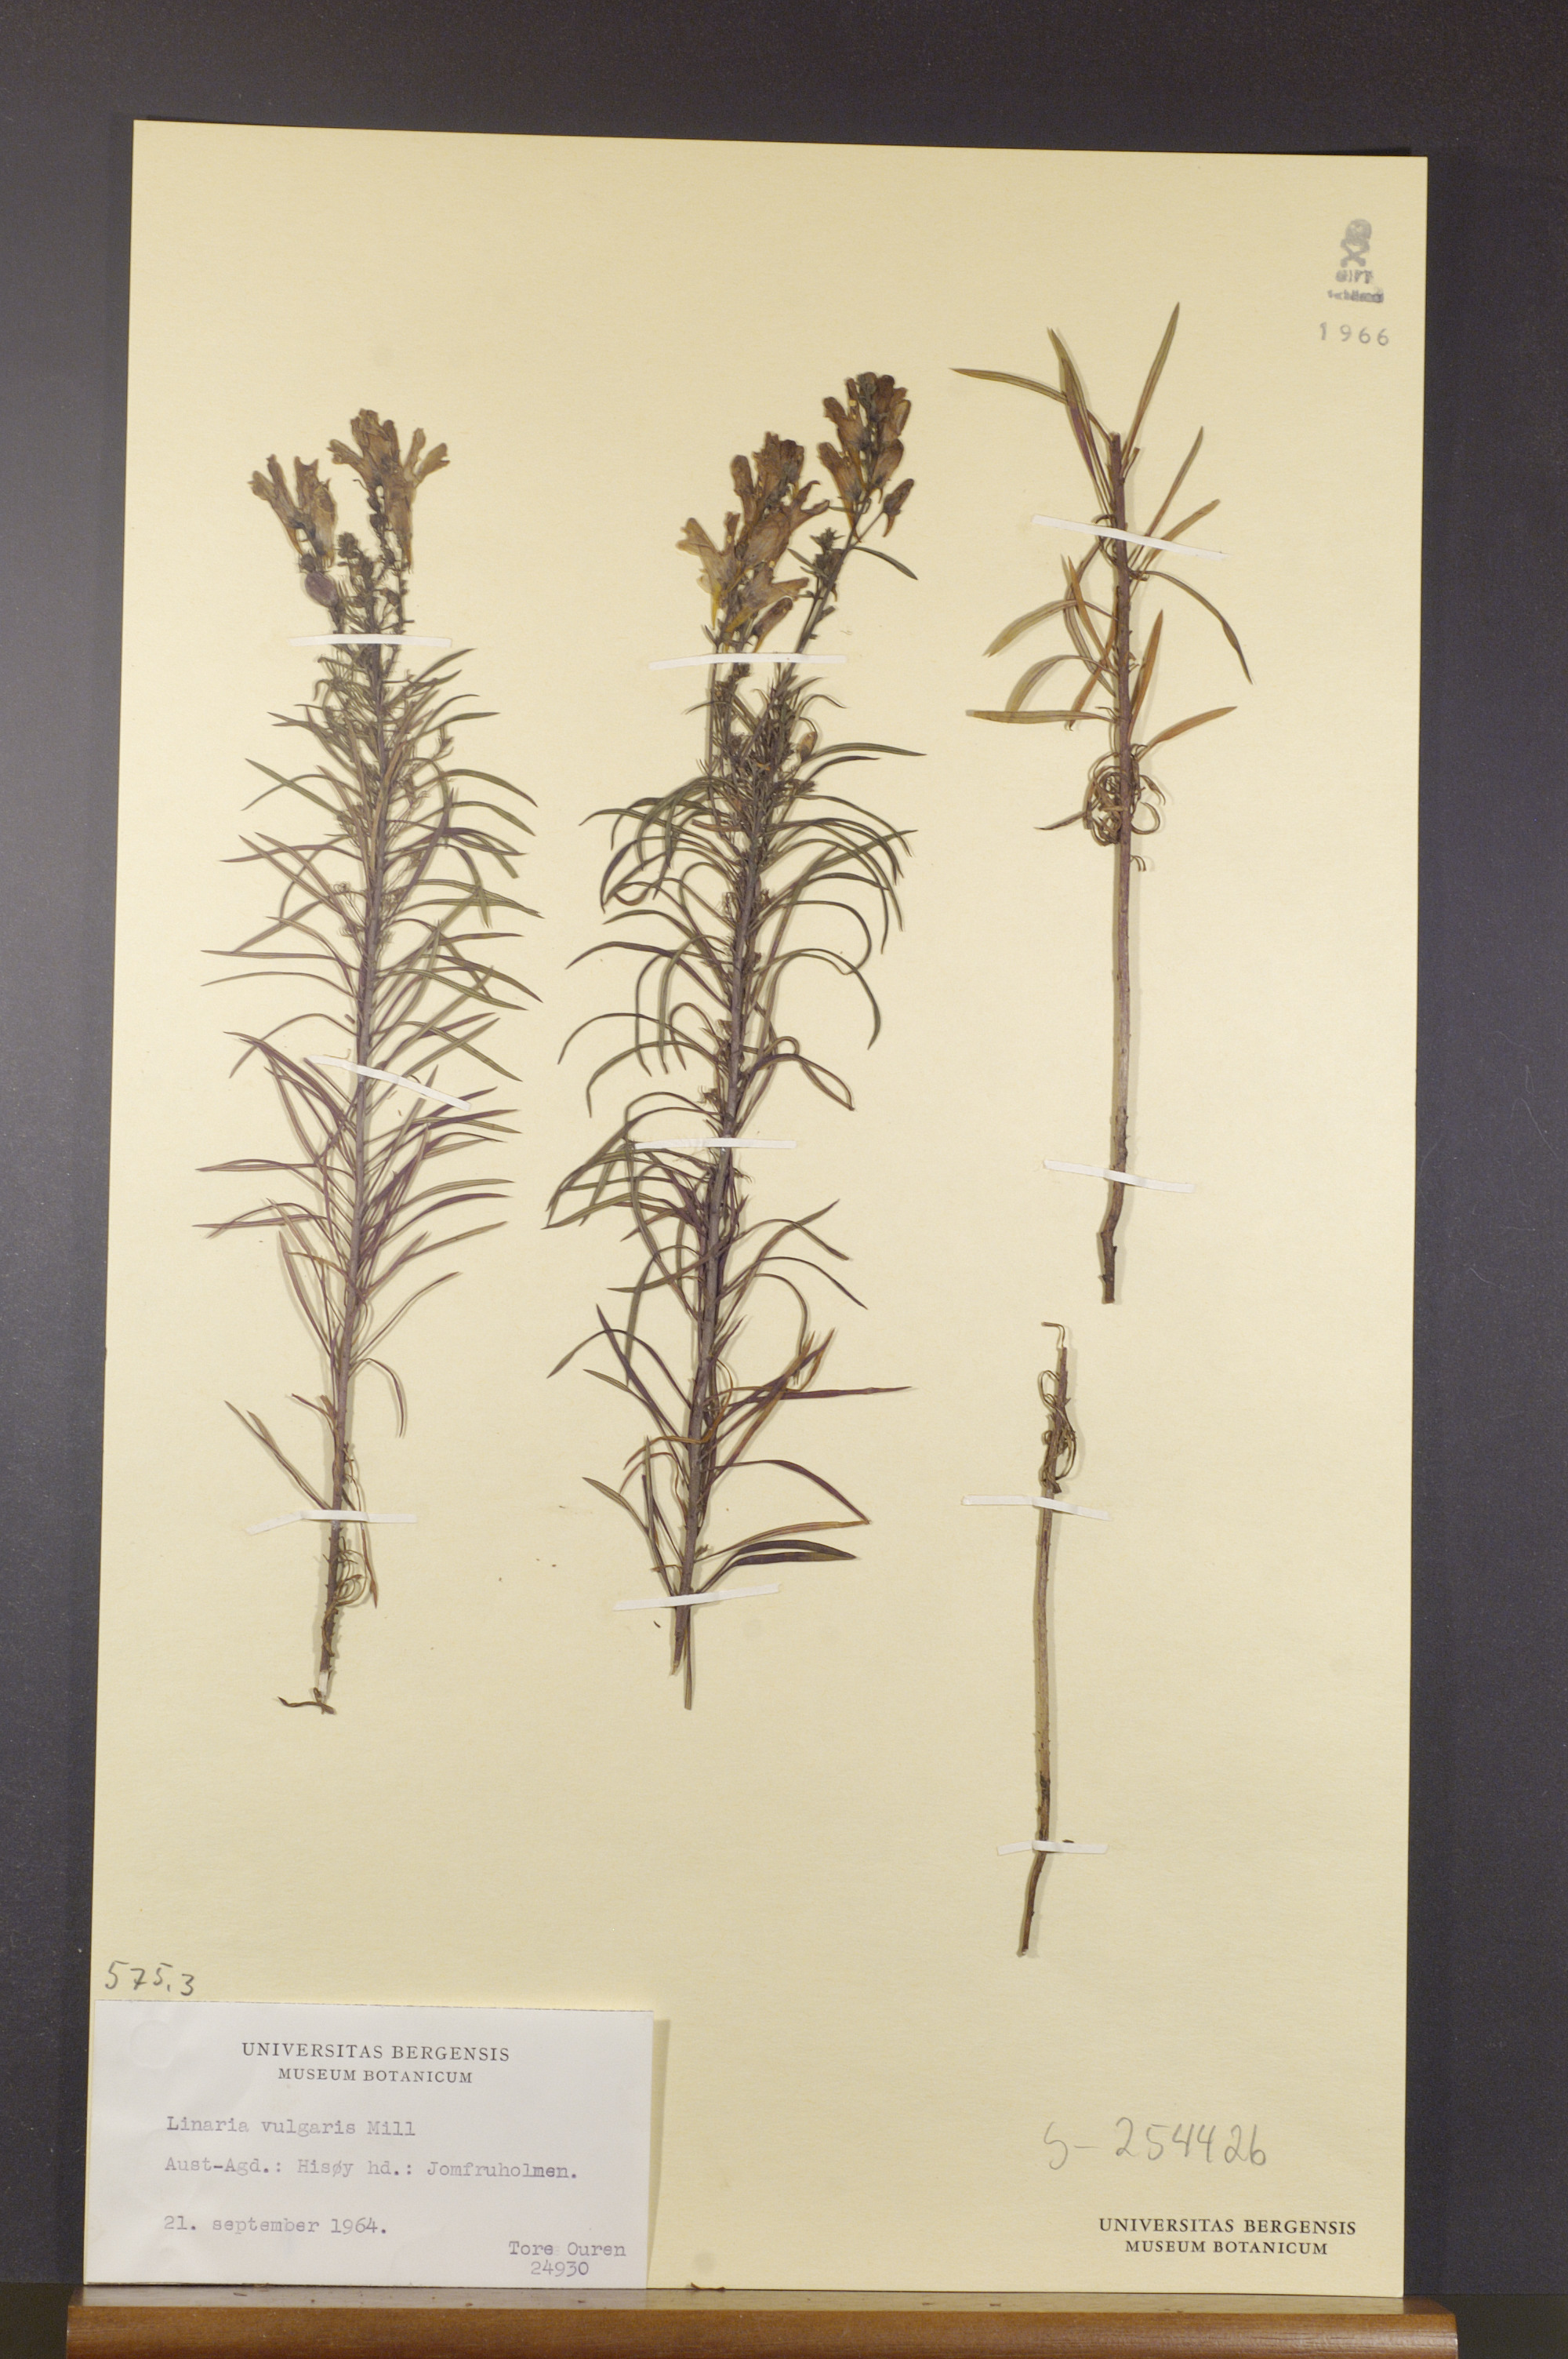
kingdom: Plantae
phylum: Tracheophyta
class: Magnoliopsida
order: Lamiales
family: Plantaginaceae
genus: Linaria
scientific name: Linaria vulgaris
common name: Butter and eggs
